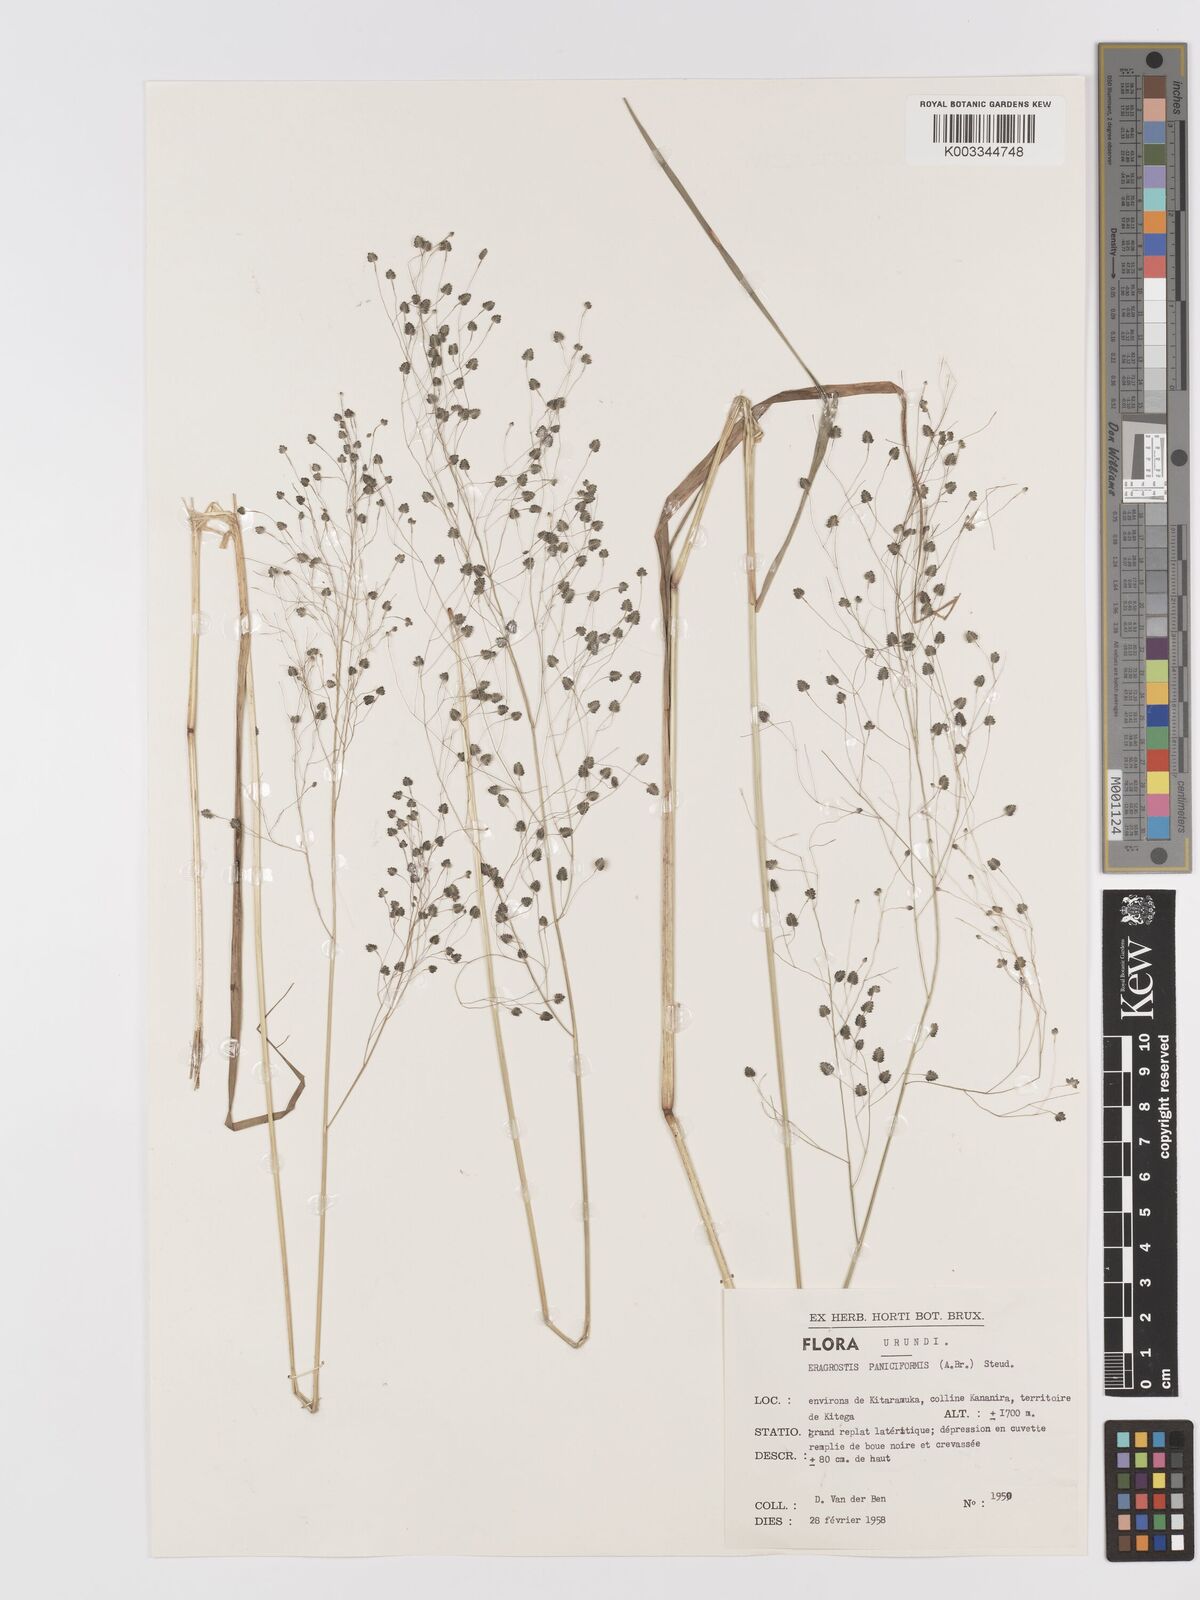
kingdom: Plantae
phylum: Tracheophyta
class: Liliopsida
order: Poales
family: Poaceae
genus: Eragrostis
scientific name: Eragrostis exasperata
